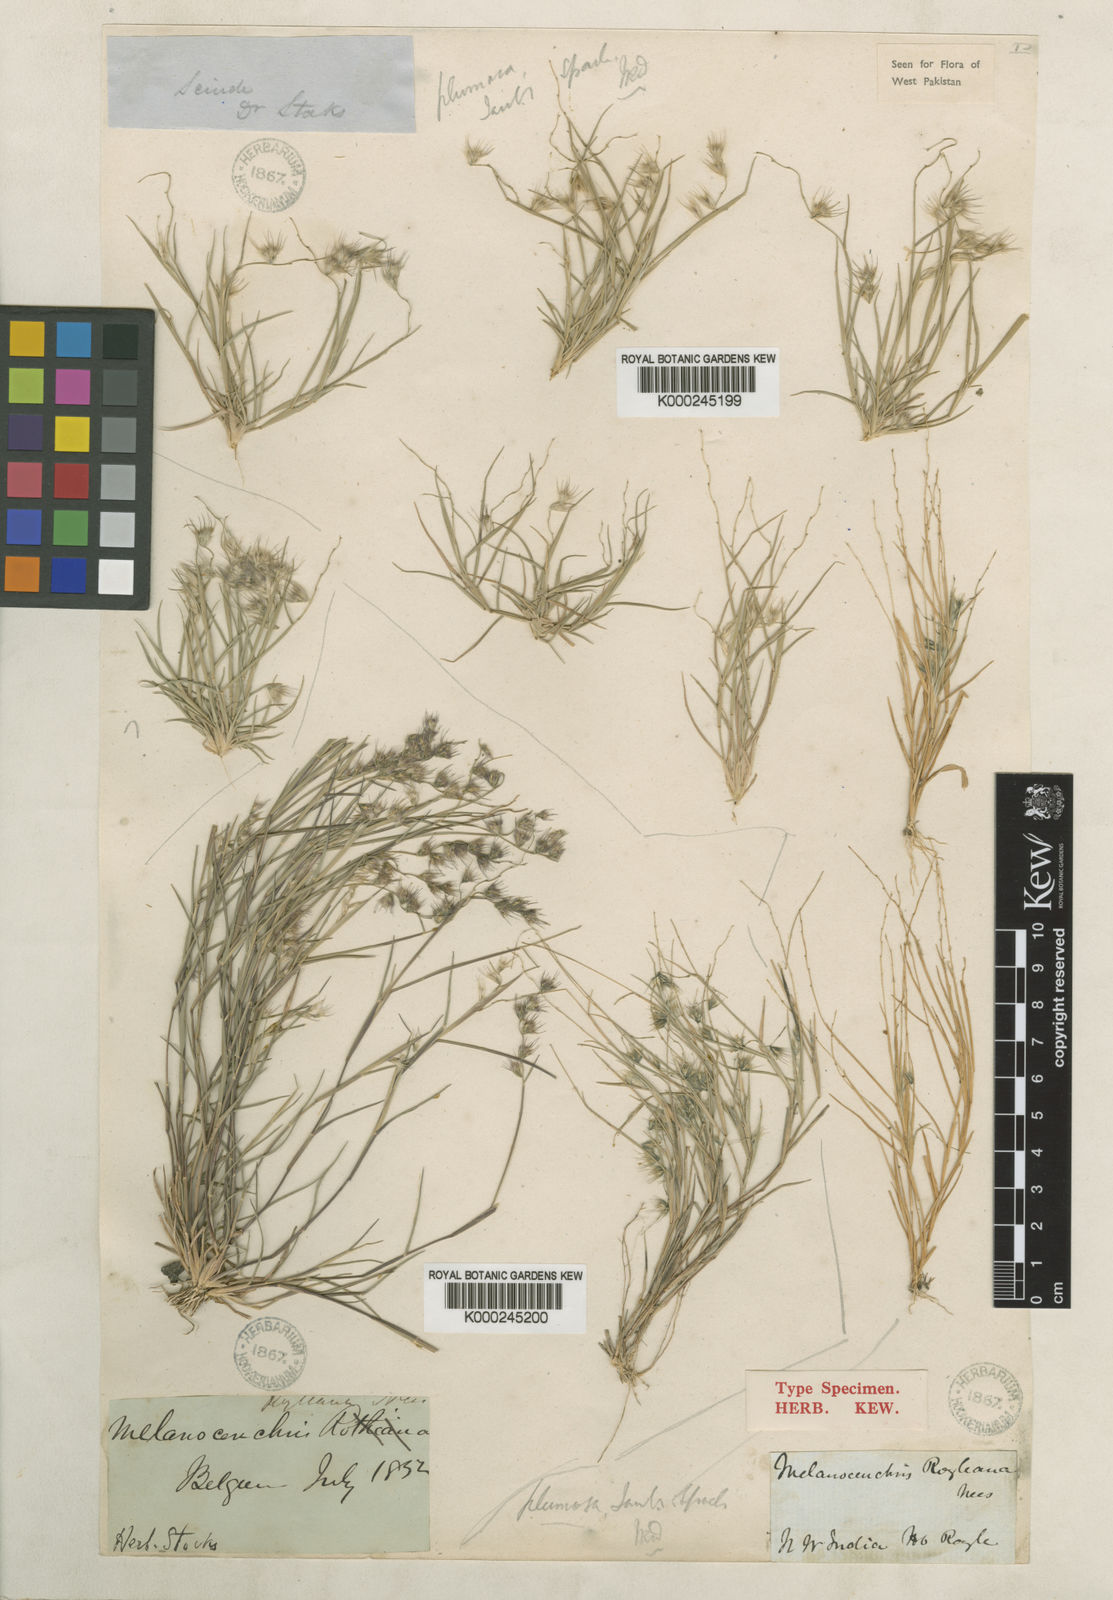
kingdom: Plantae
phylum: Tracheophyta
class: Liliopsida
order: Poales
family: Poaceae
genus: Melanocenchris
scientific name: Melanocenchris jacquemontii
